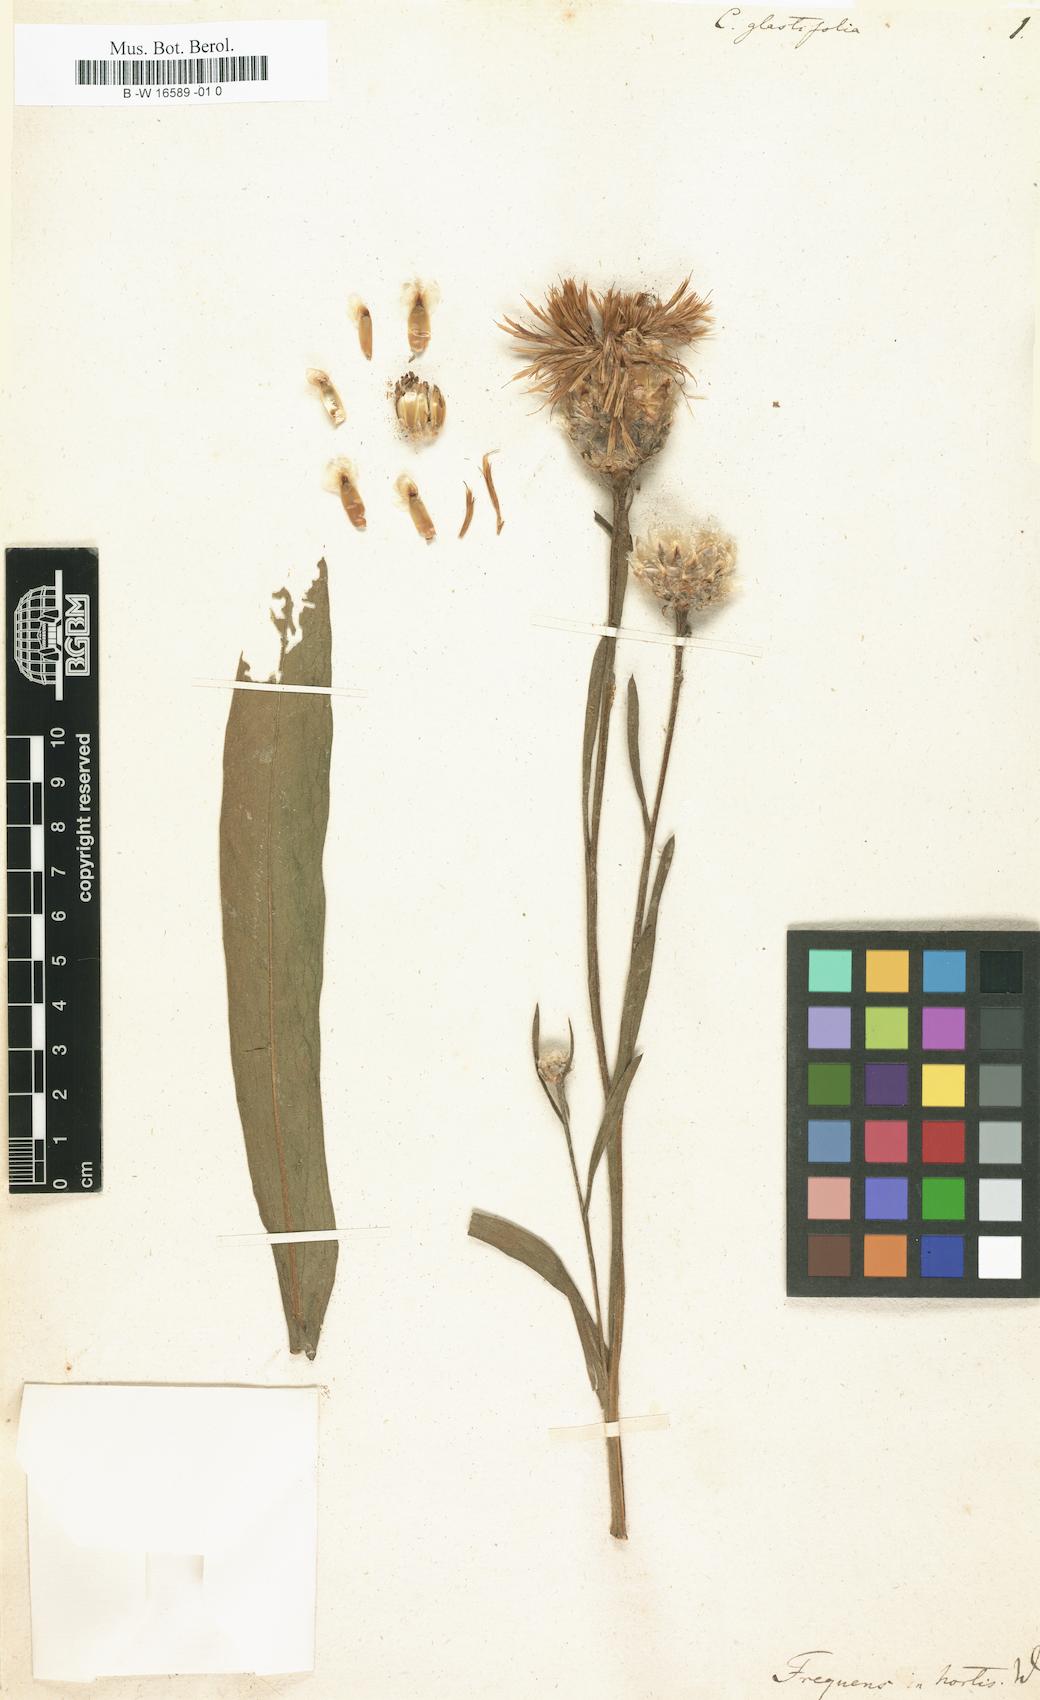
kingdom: Plantae
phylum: Tracheophyta
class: Magnoliopsida
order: Asterales
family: Asteraceae
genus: Centaurea
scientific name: Centaurea glastifolia
